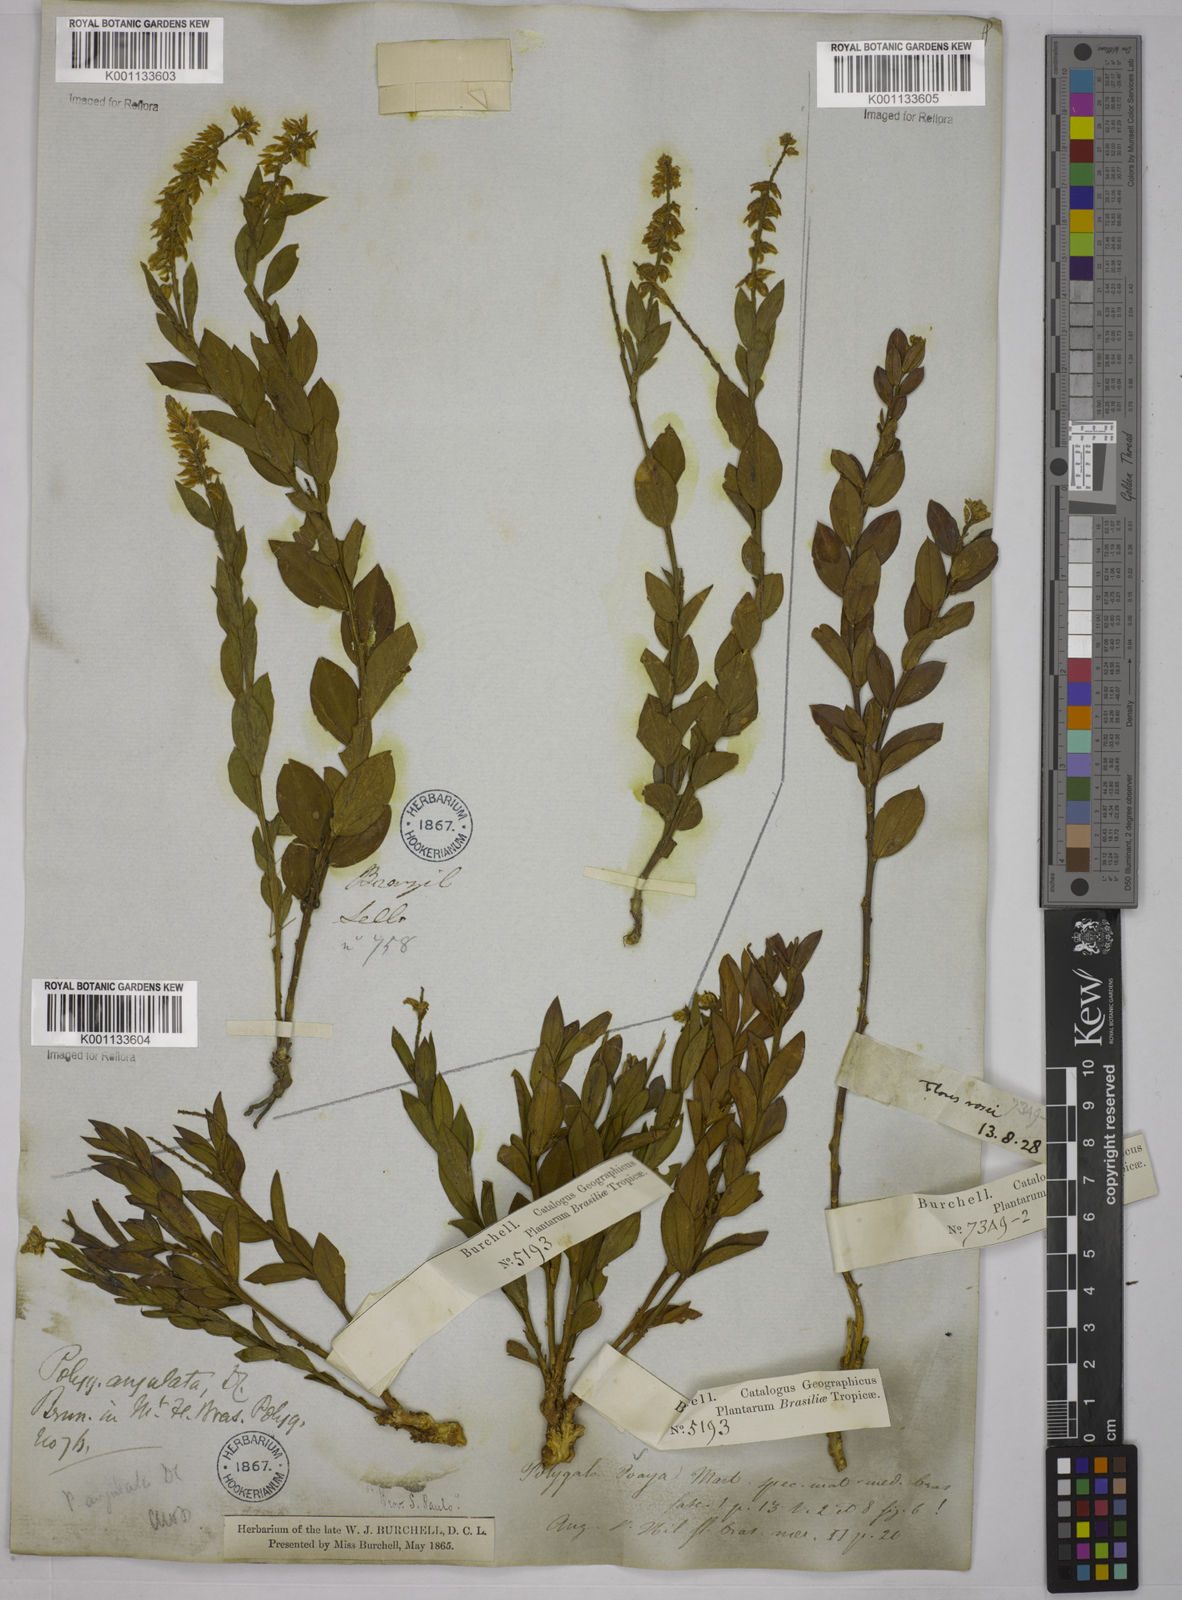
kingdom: Plantae
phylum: Tracheophyta
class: Magnoliopsida
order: Fabales
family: Polygalaceae
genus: Polygala
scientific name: Polygala poaya
